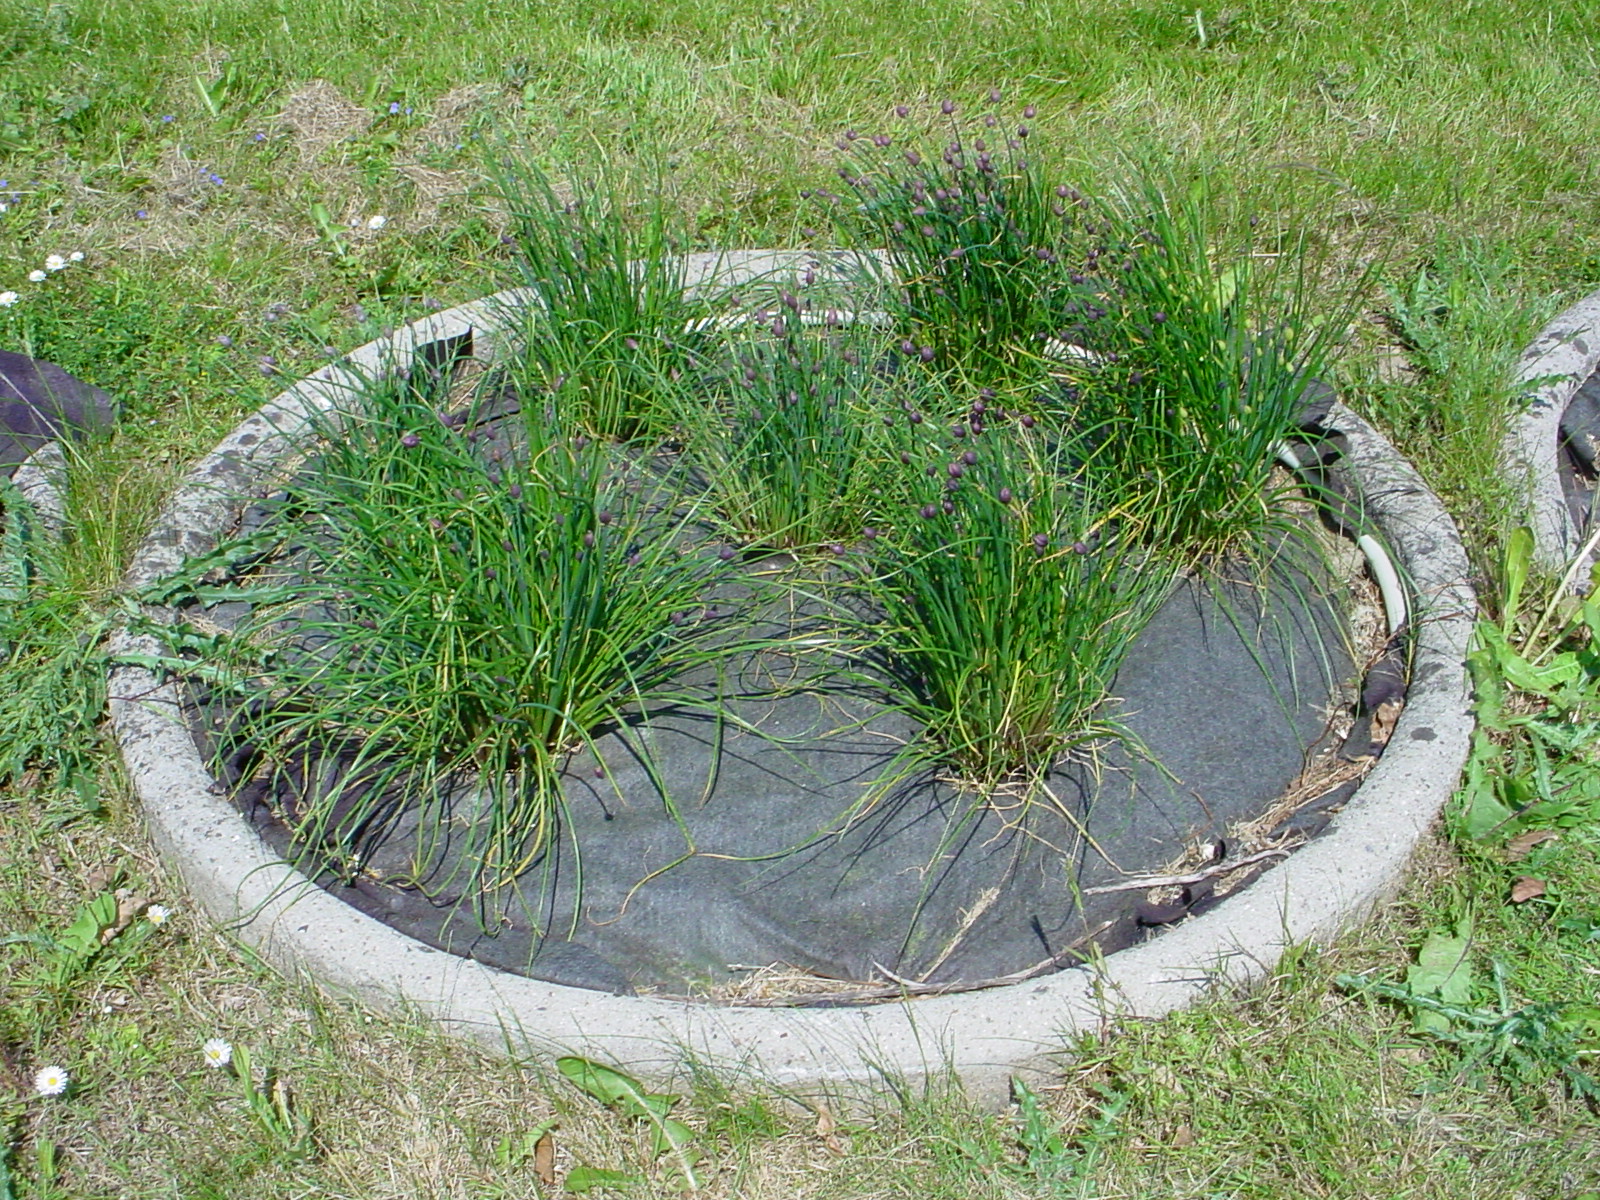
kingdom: Plantae
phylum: Tracheophyta
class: Liliopsida
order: Asparagales
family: Amaryllidaceae
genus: Allium
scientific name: Allium schoenoprasum
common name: Chives
